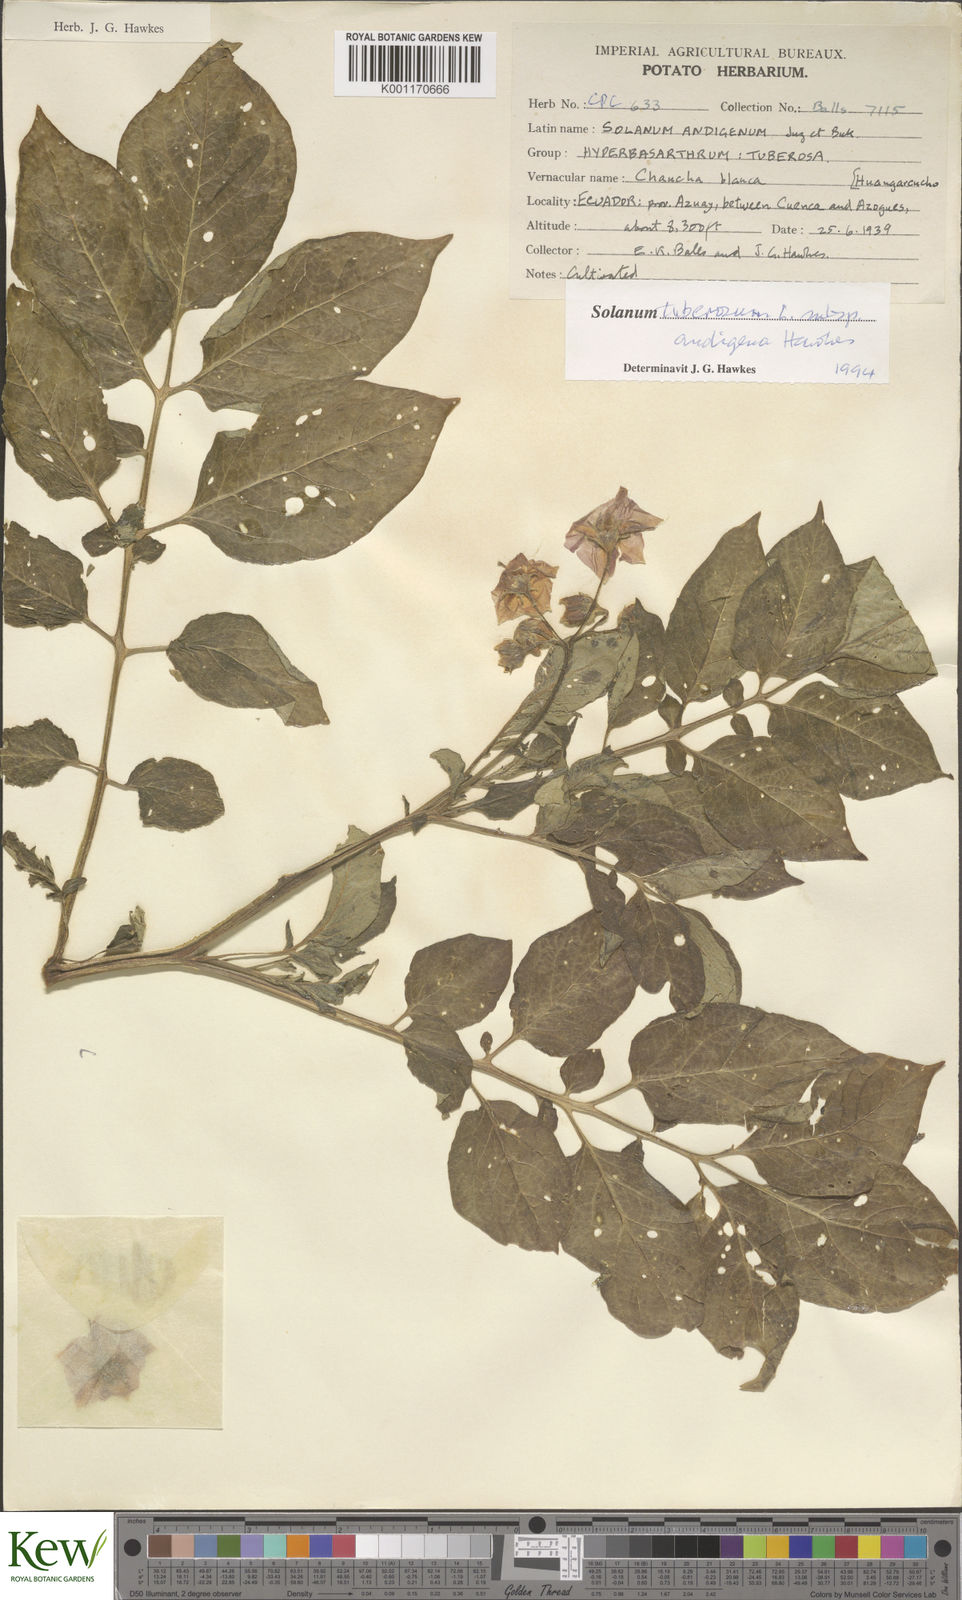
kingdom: Plantae
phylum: Tracheophyta
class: Magnoliopsida
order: Solanales
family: Solanaceae
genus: Solanum
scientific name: Solanum tuberosum
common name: Potato
